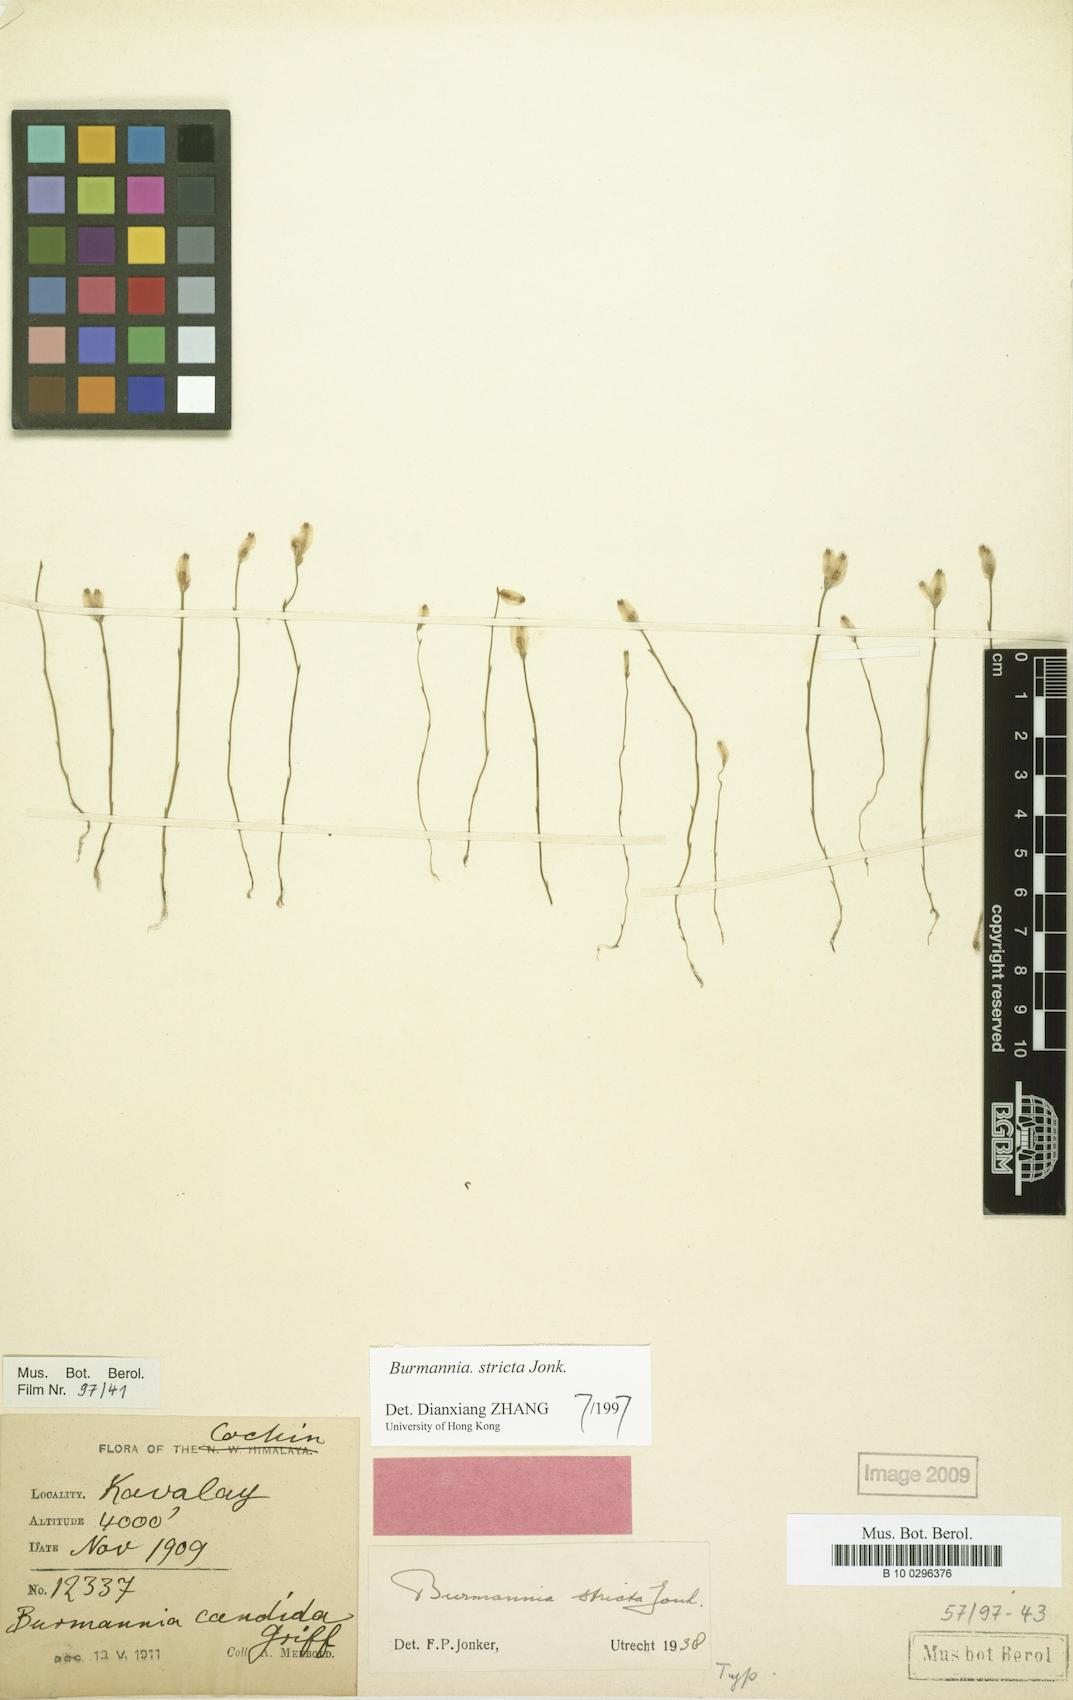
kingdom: Plantae
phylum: Tracheophyta
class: Liliopsida
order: Dioscoreales
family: Burmanniaceae
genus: Burmannia
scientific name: Burmannia stricta
